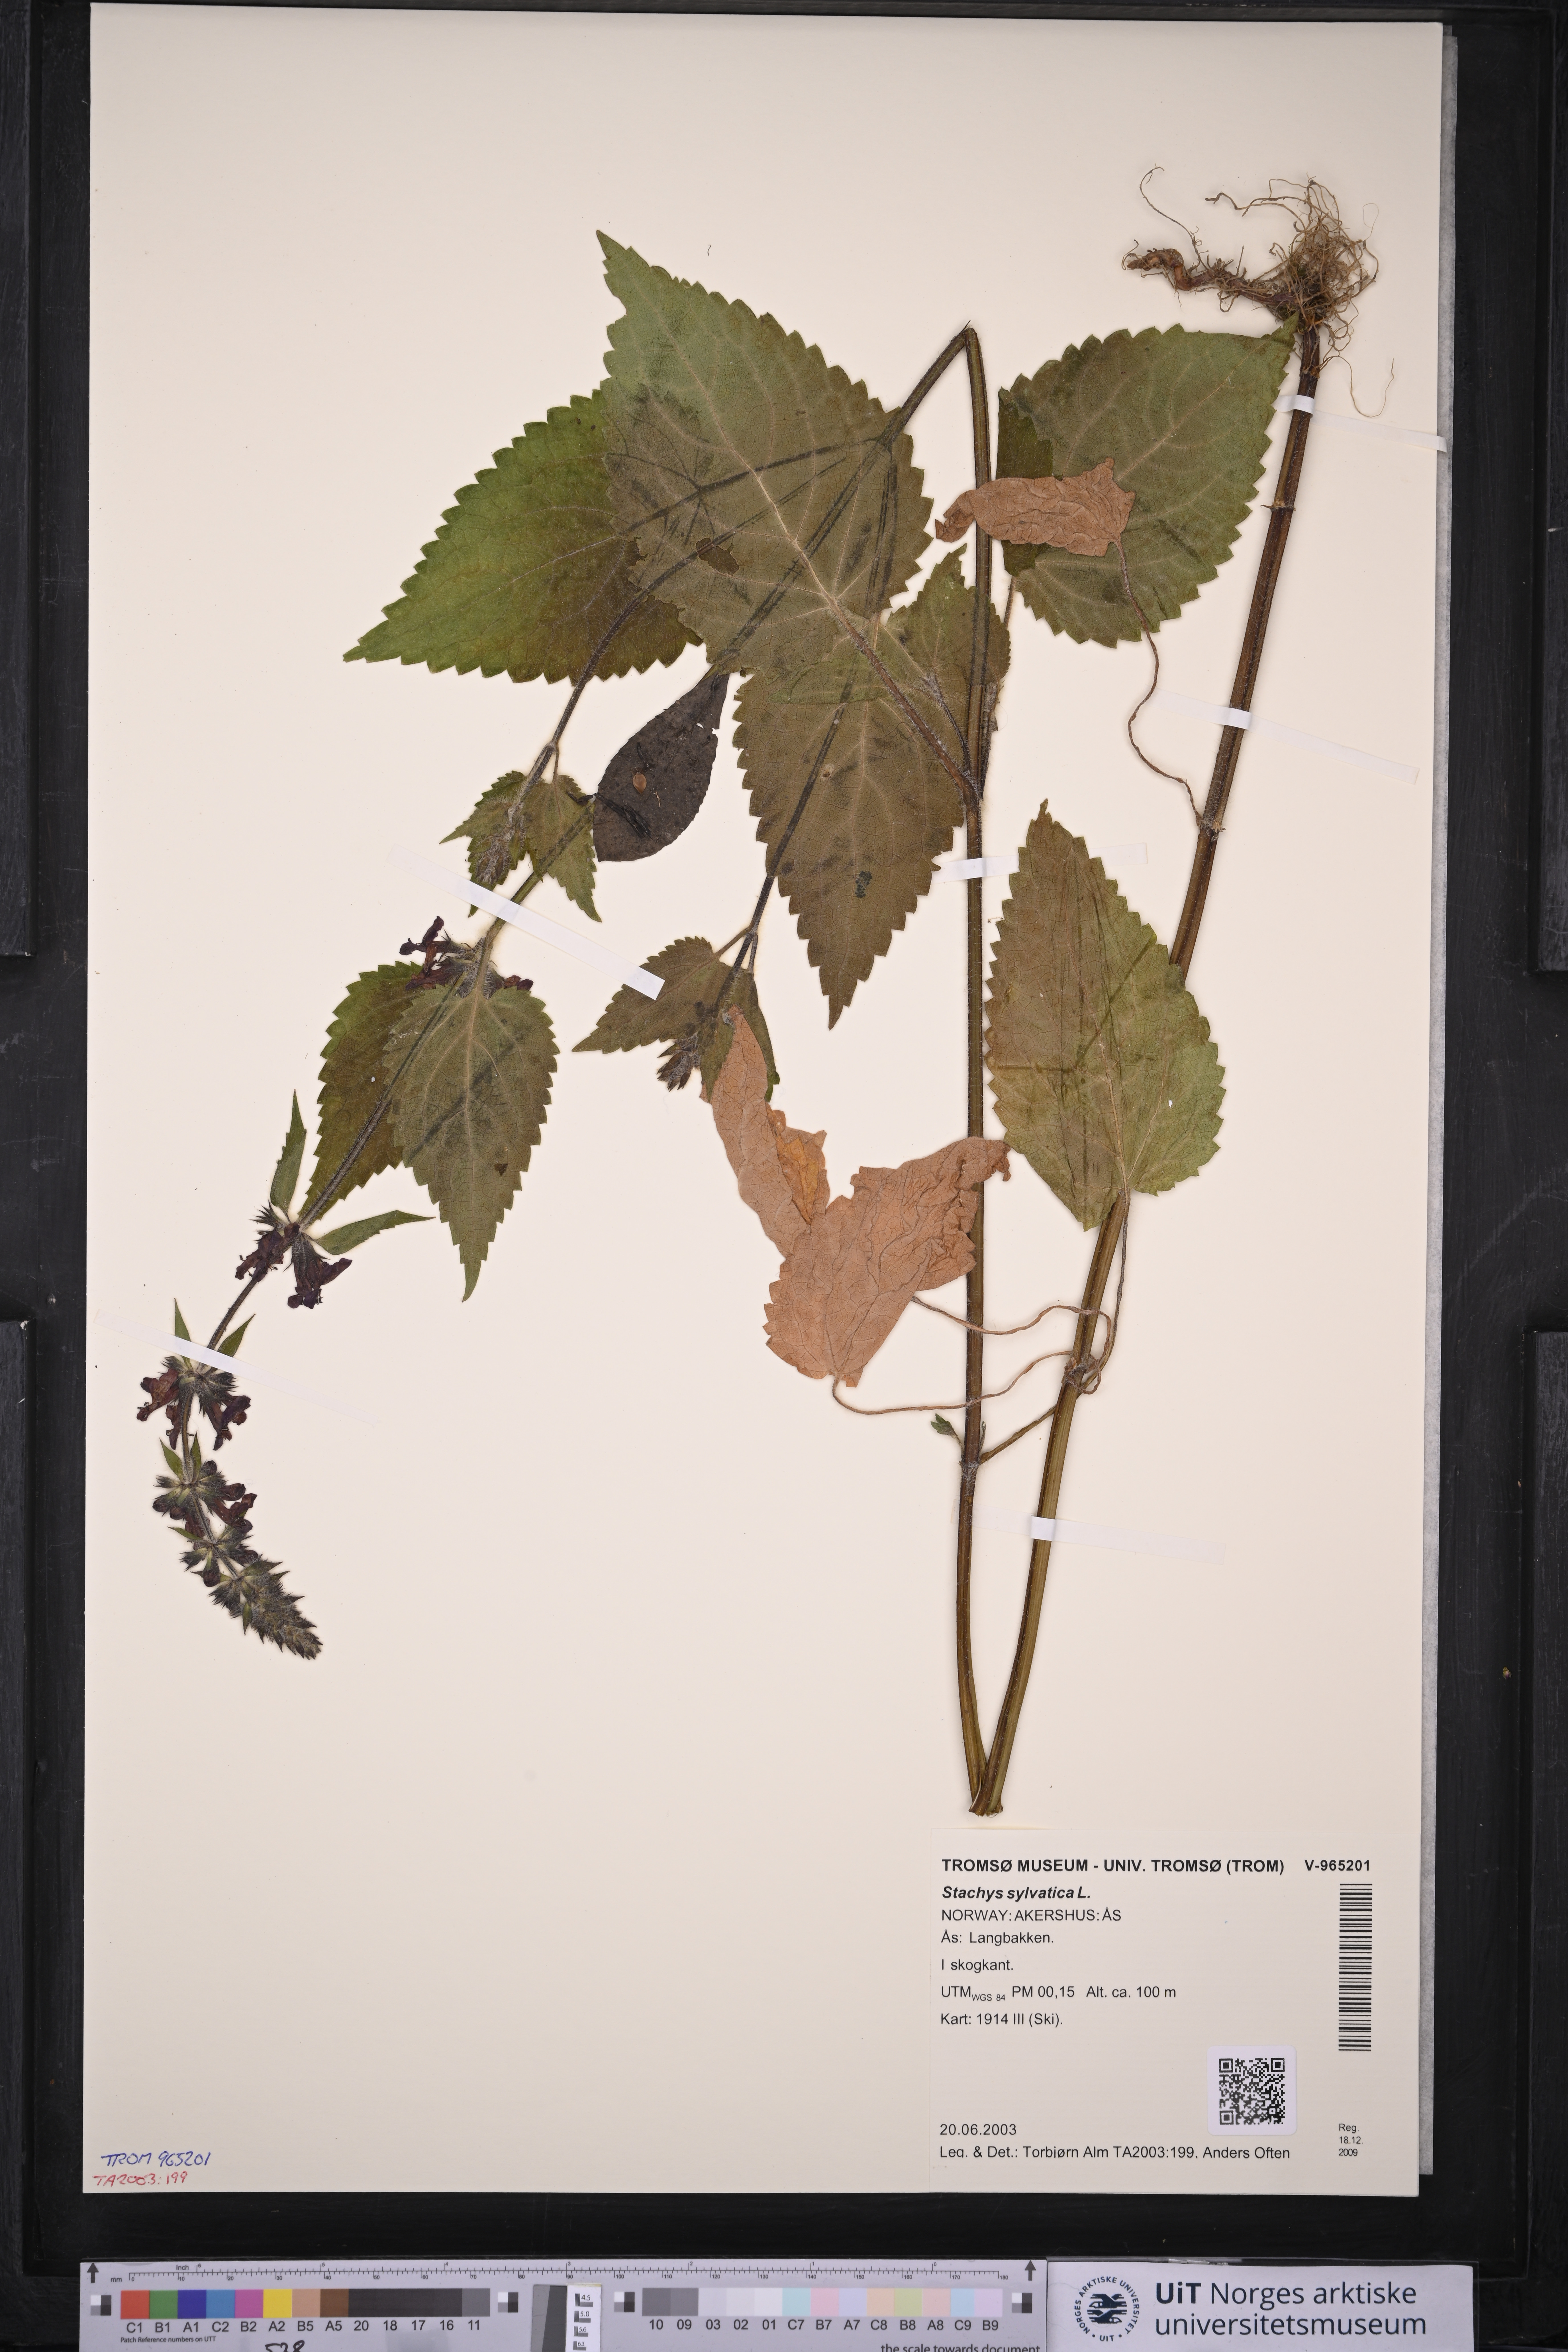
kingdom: Plantae
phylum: Tracheophyta
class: Magnoliopsida
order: Lamiales
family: Lamiaceae
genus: Stachys
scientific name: Stachys sylvatica
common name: Hedge woundwort
